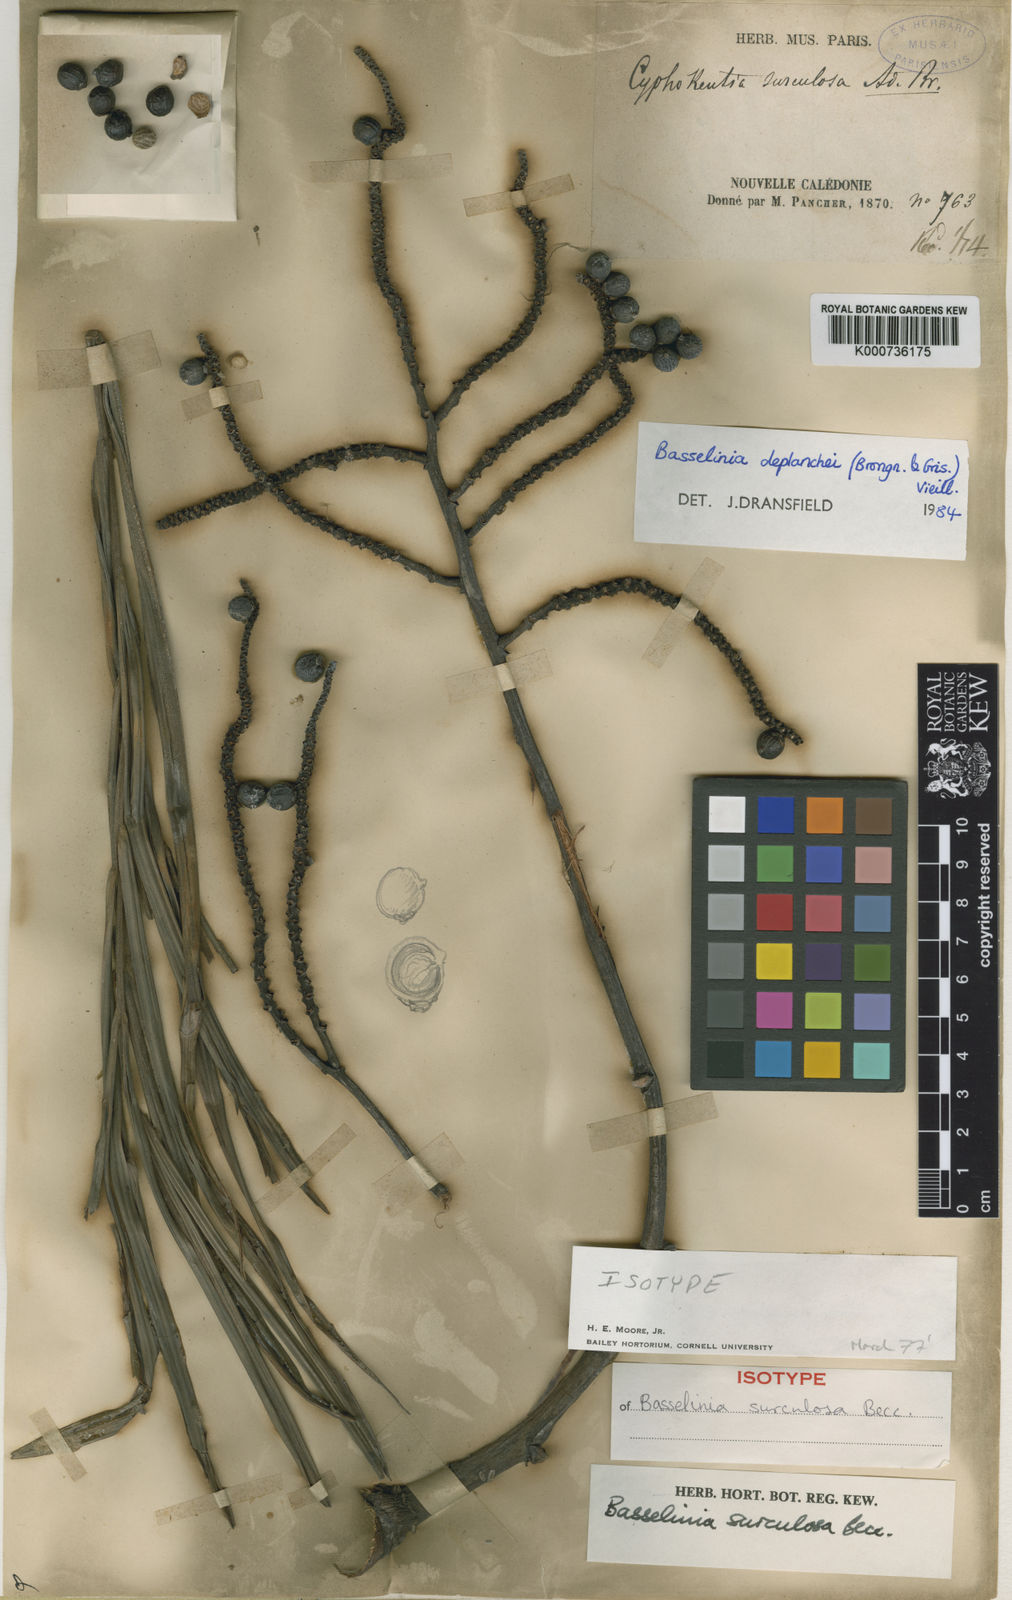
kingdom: Plantae
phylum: Tracheophyta
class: Liliopsida
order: Arecales
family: Arecaceae
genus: Basselinia
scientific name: Basselinia deplanchei
